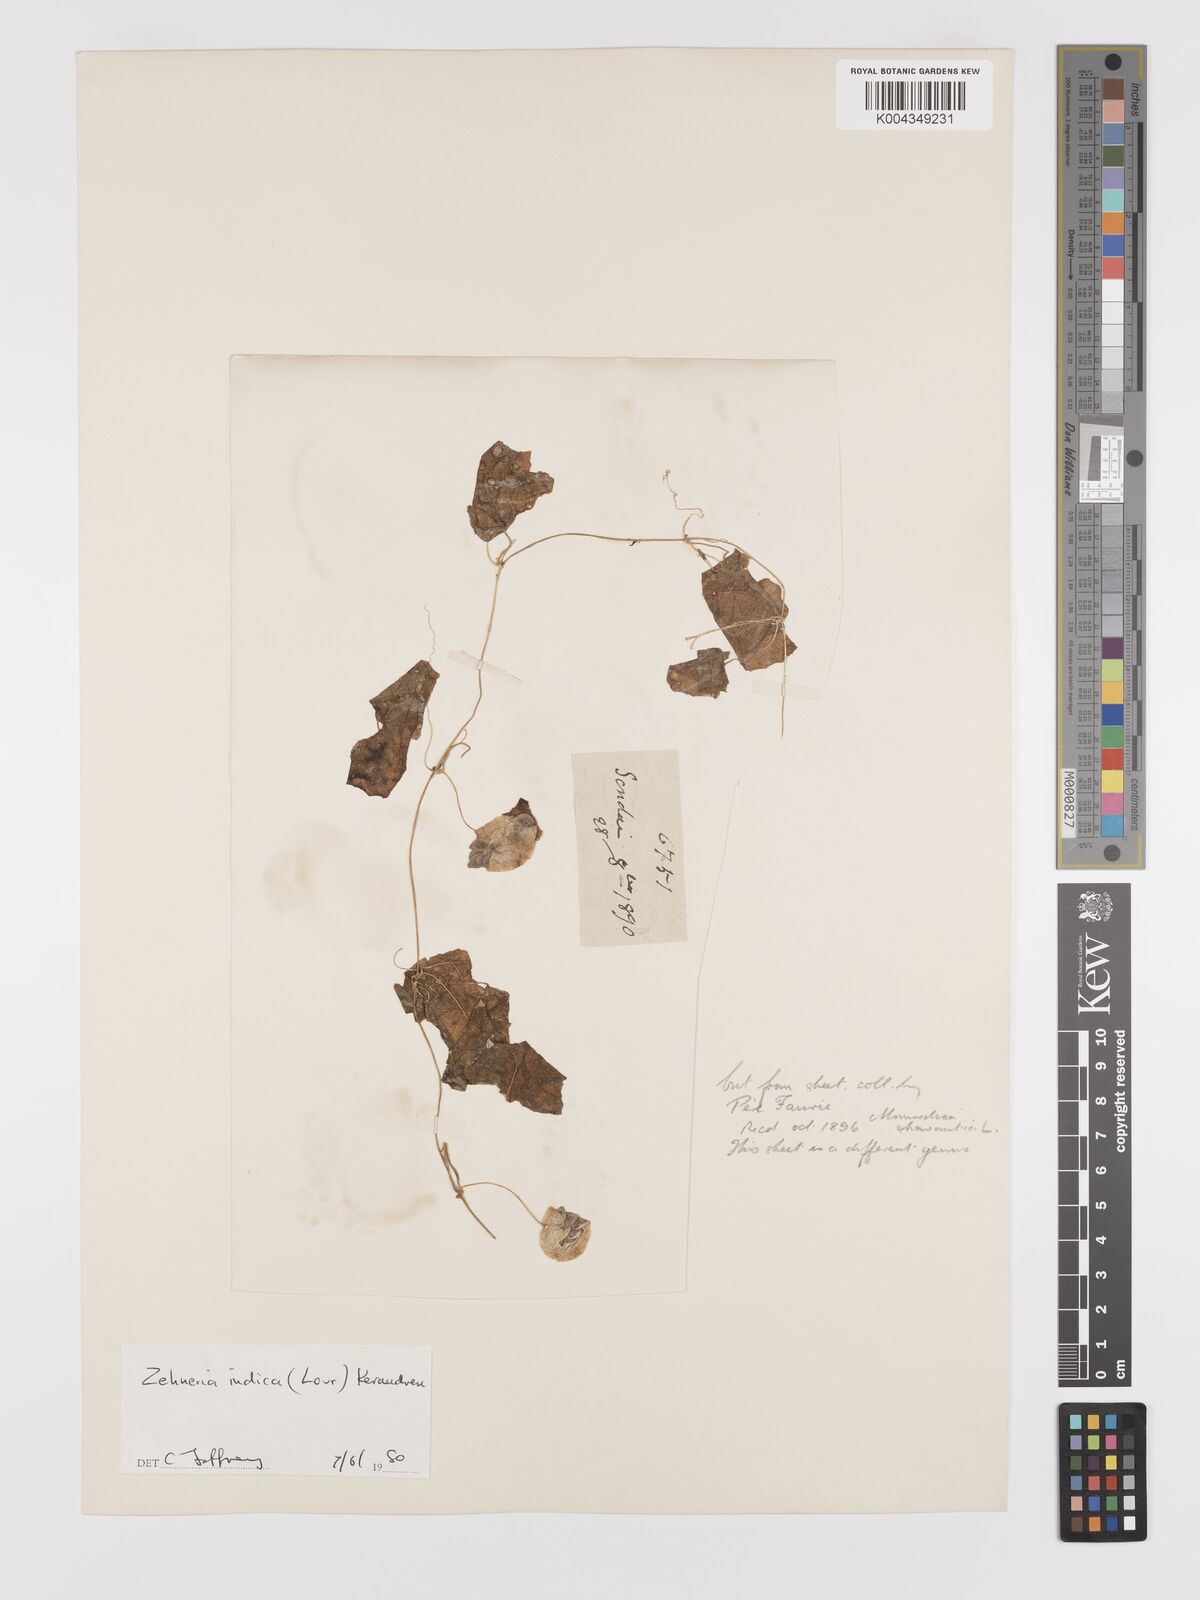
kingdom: Plantae
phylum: Tracheophyta
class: Magnoliopsida
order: Cucurbitales
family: Cucurbitaceae
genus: Zehneria
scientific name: Zehneria japonica
